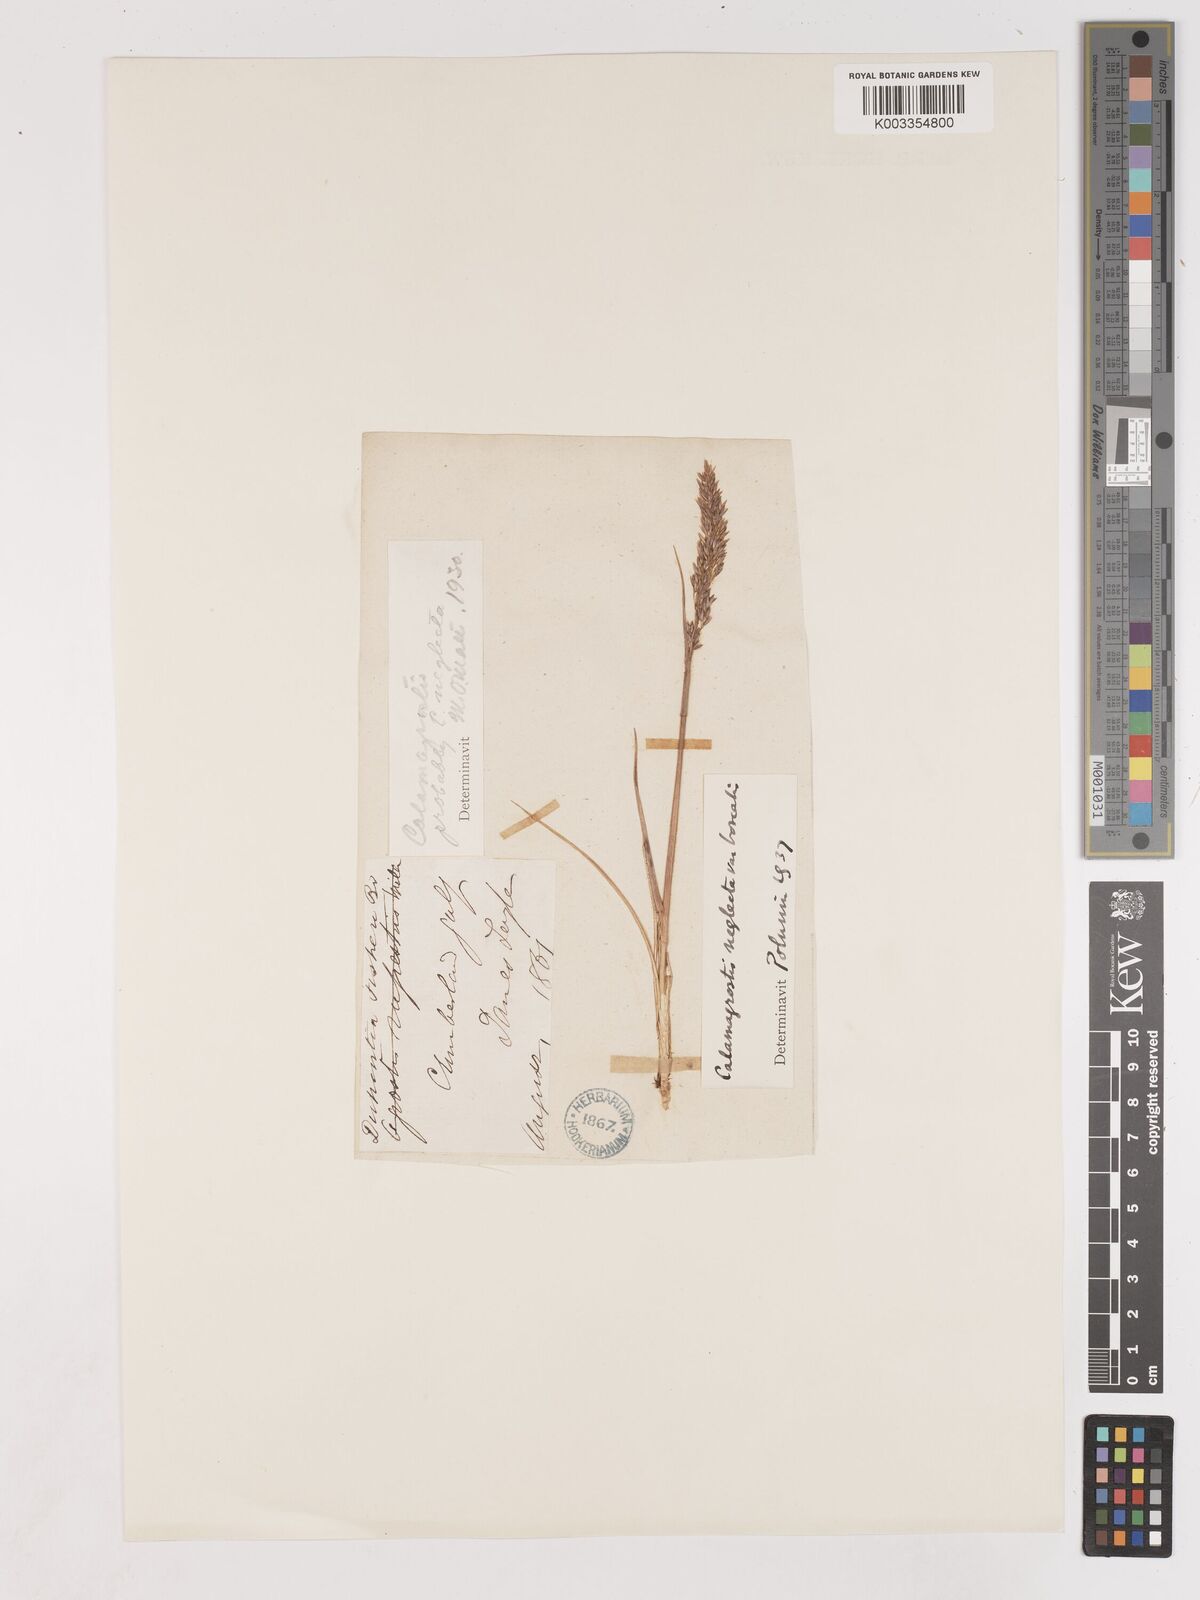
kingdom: Plantae
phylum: Tracheophyta
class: Liliopsida
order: Poales
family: Poaceae
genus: Cinnagrostis
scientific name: Cinnagrostis recta
